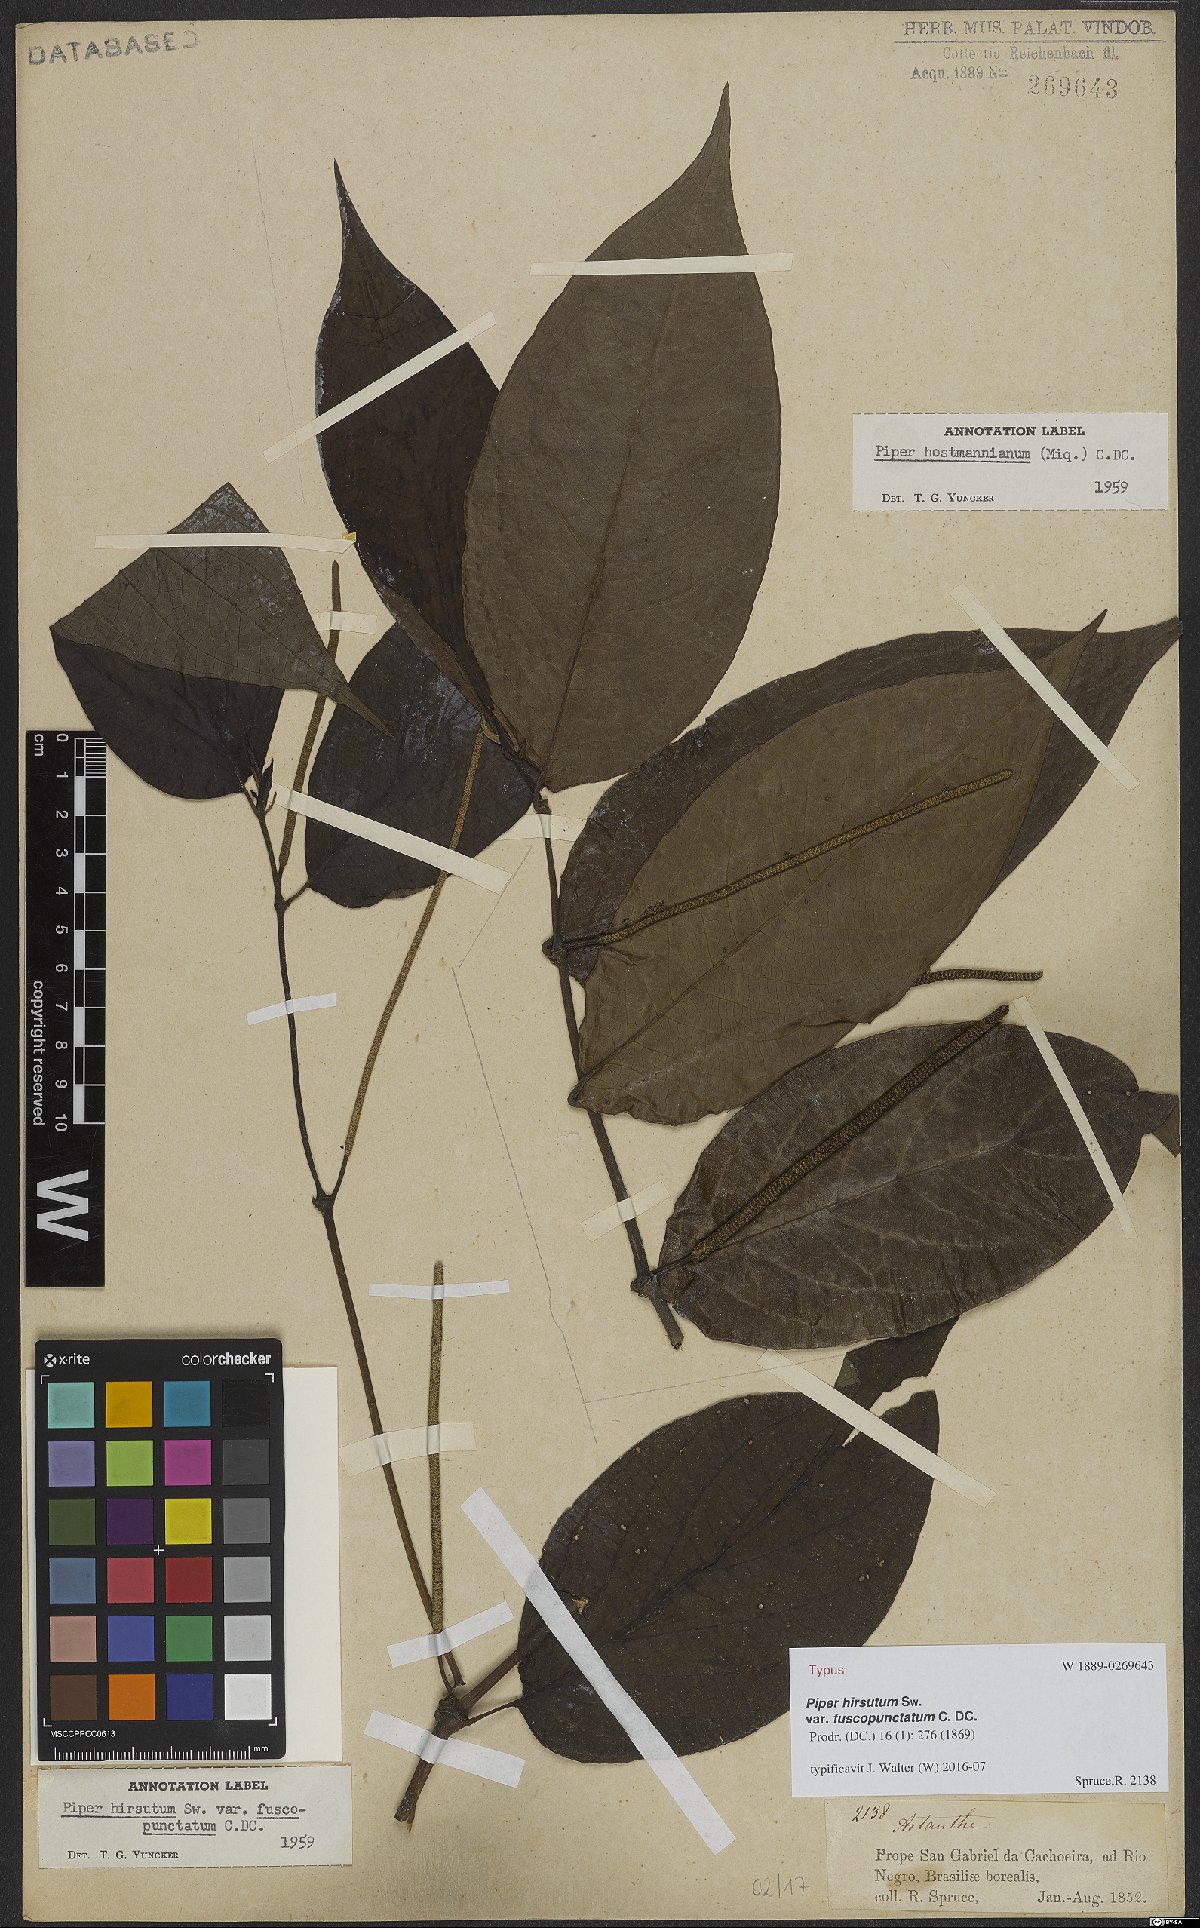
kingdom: Plantae
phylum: Tracheophyta
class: Magnoliopsida
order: Piperales
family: Piperaceae
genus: Piper
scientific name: Piper hispidum
